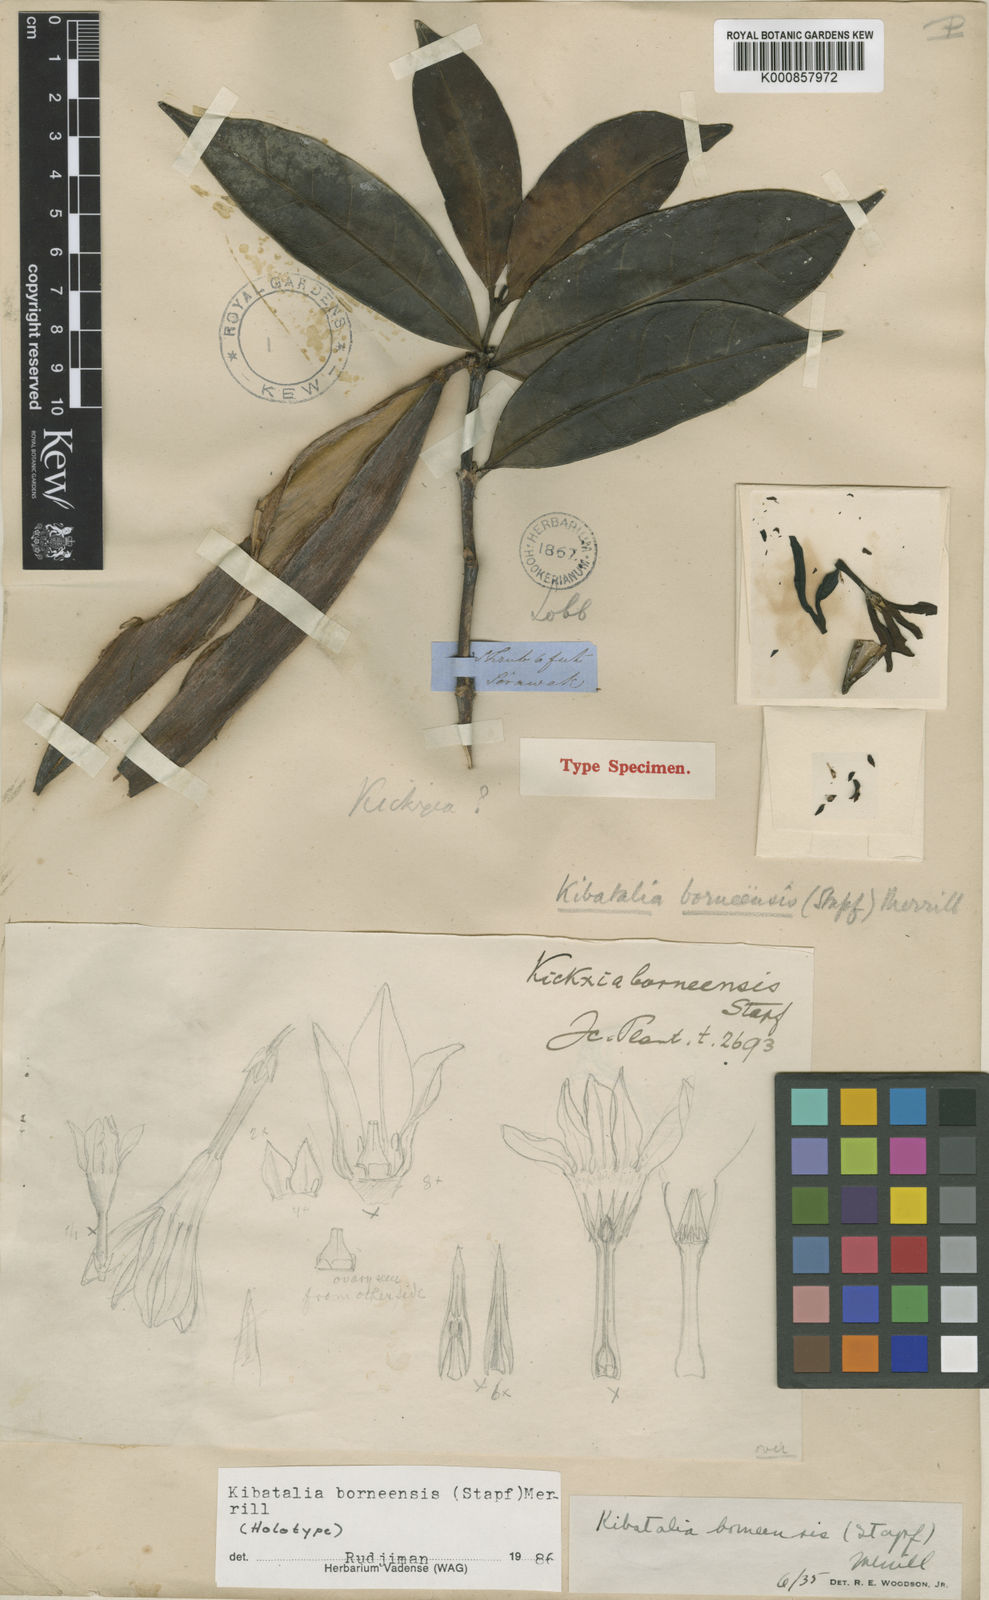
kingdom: Plantae
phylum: Tracheophyta
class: Magnoliopsida
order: Gentianales
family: Apocynaceae
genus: Kibatalia
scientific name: Kibatalia borneensis
